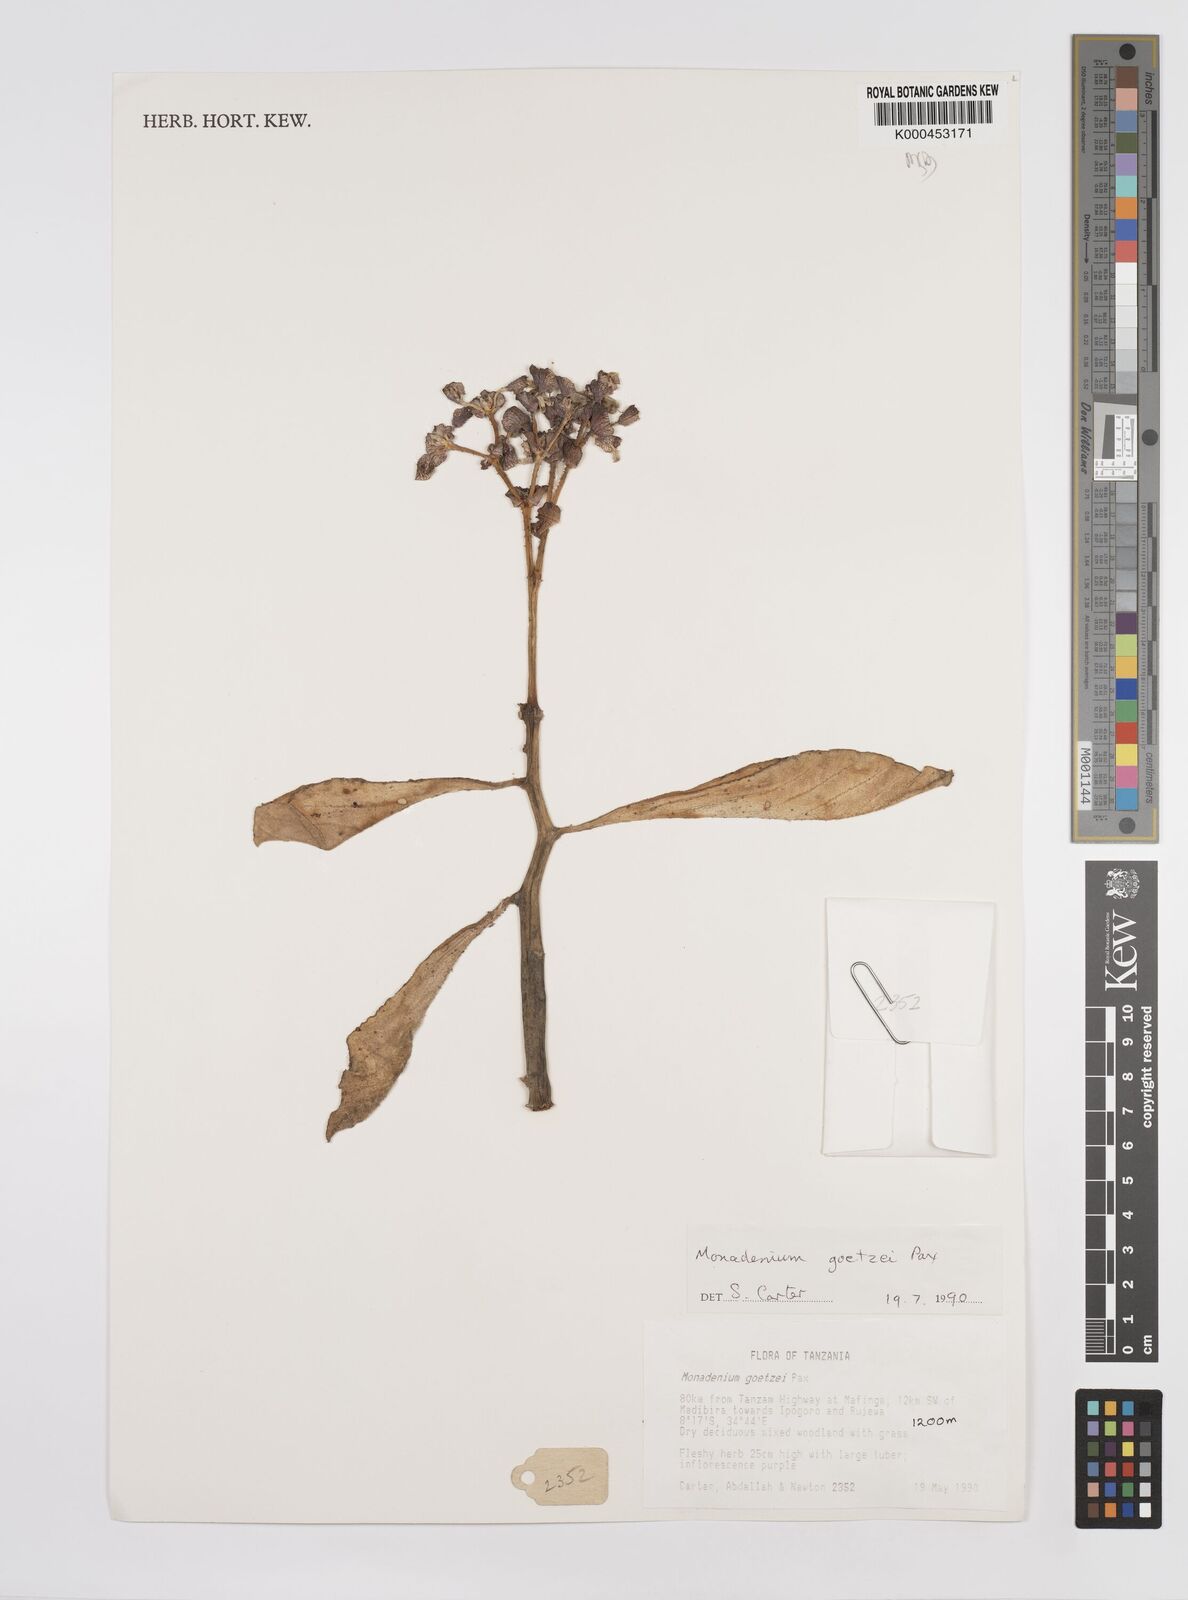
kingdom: Plantae
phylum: Tracheophyta
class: Magnoliopsida
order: Malpighiales
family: Euphorbiaceae
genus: Euphorbia
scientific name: Euphorbia neogoetzei
